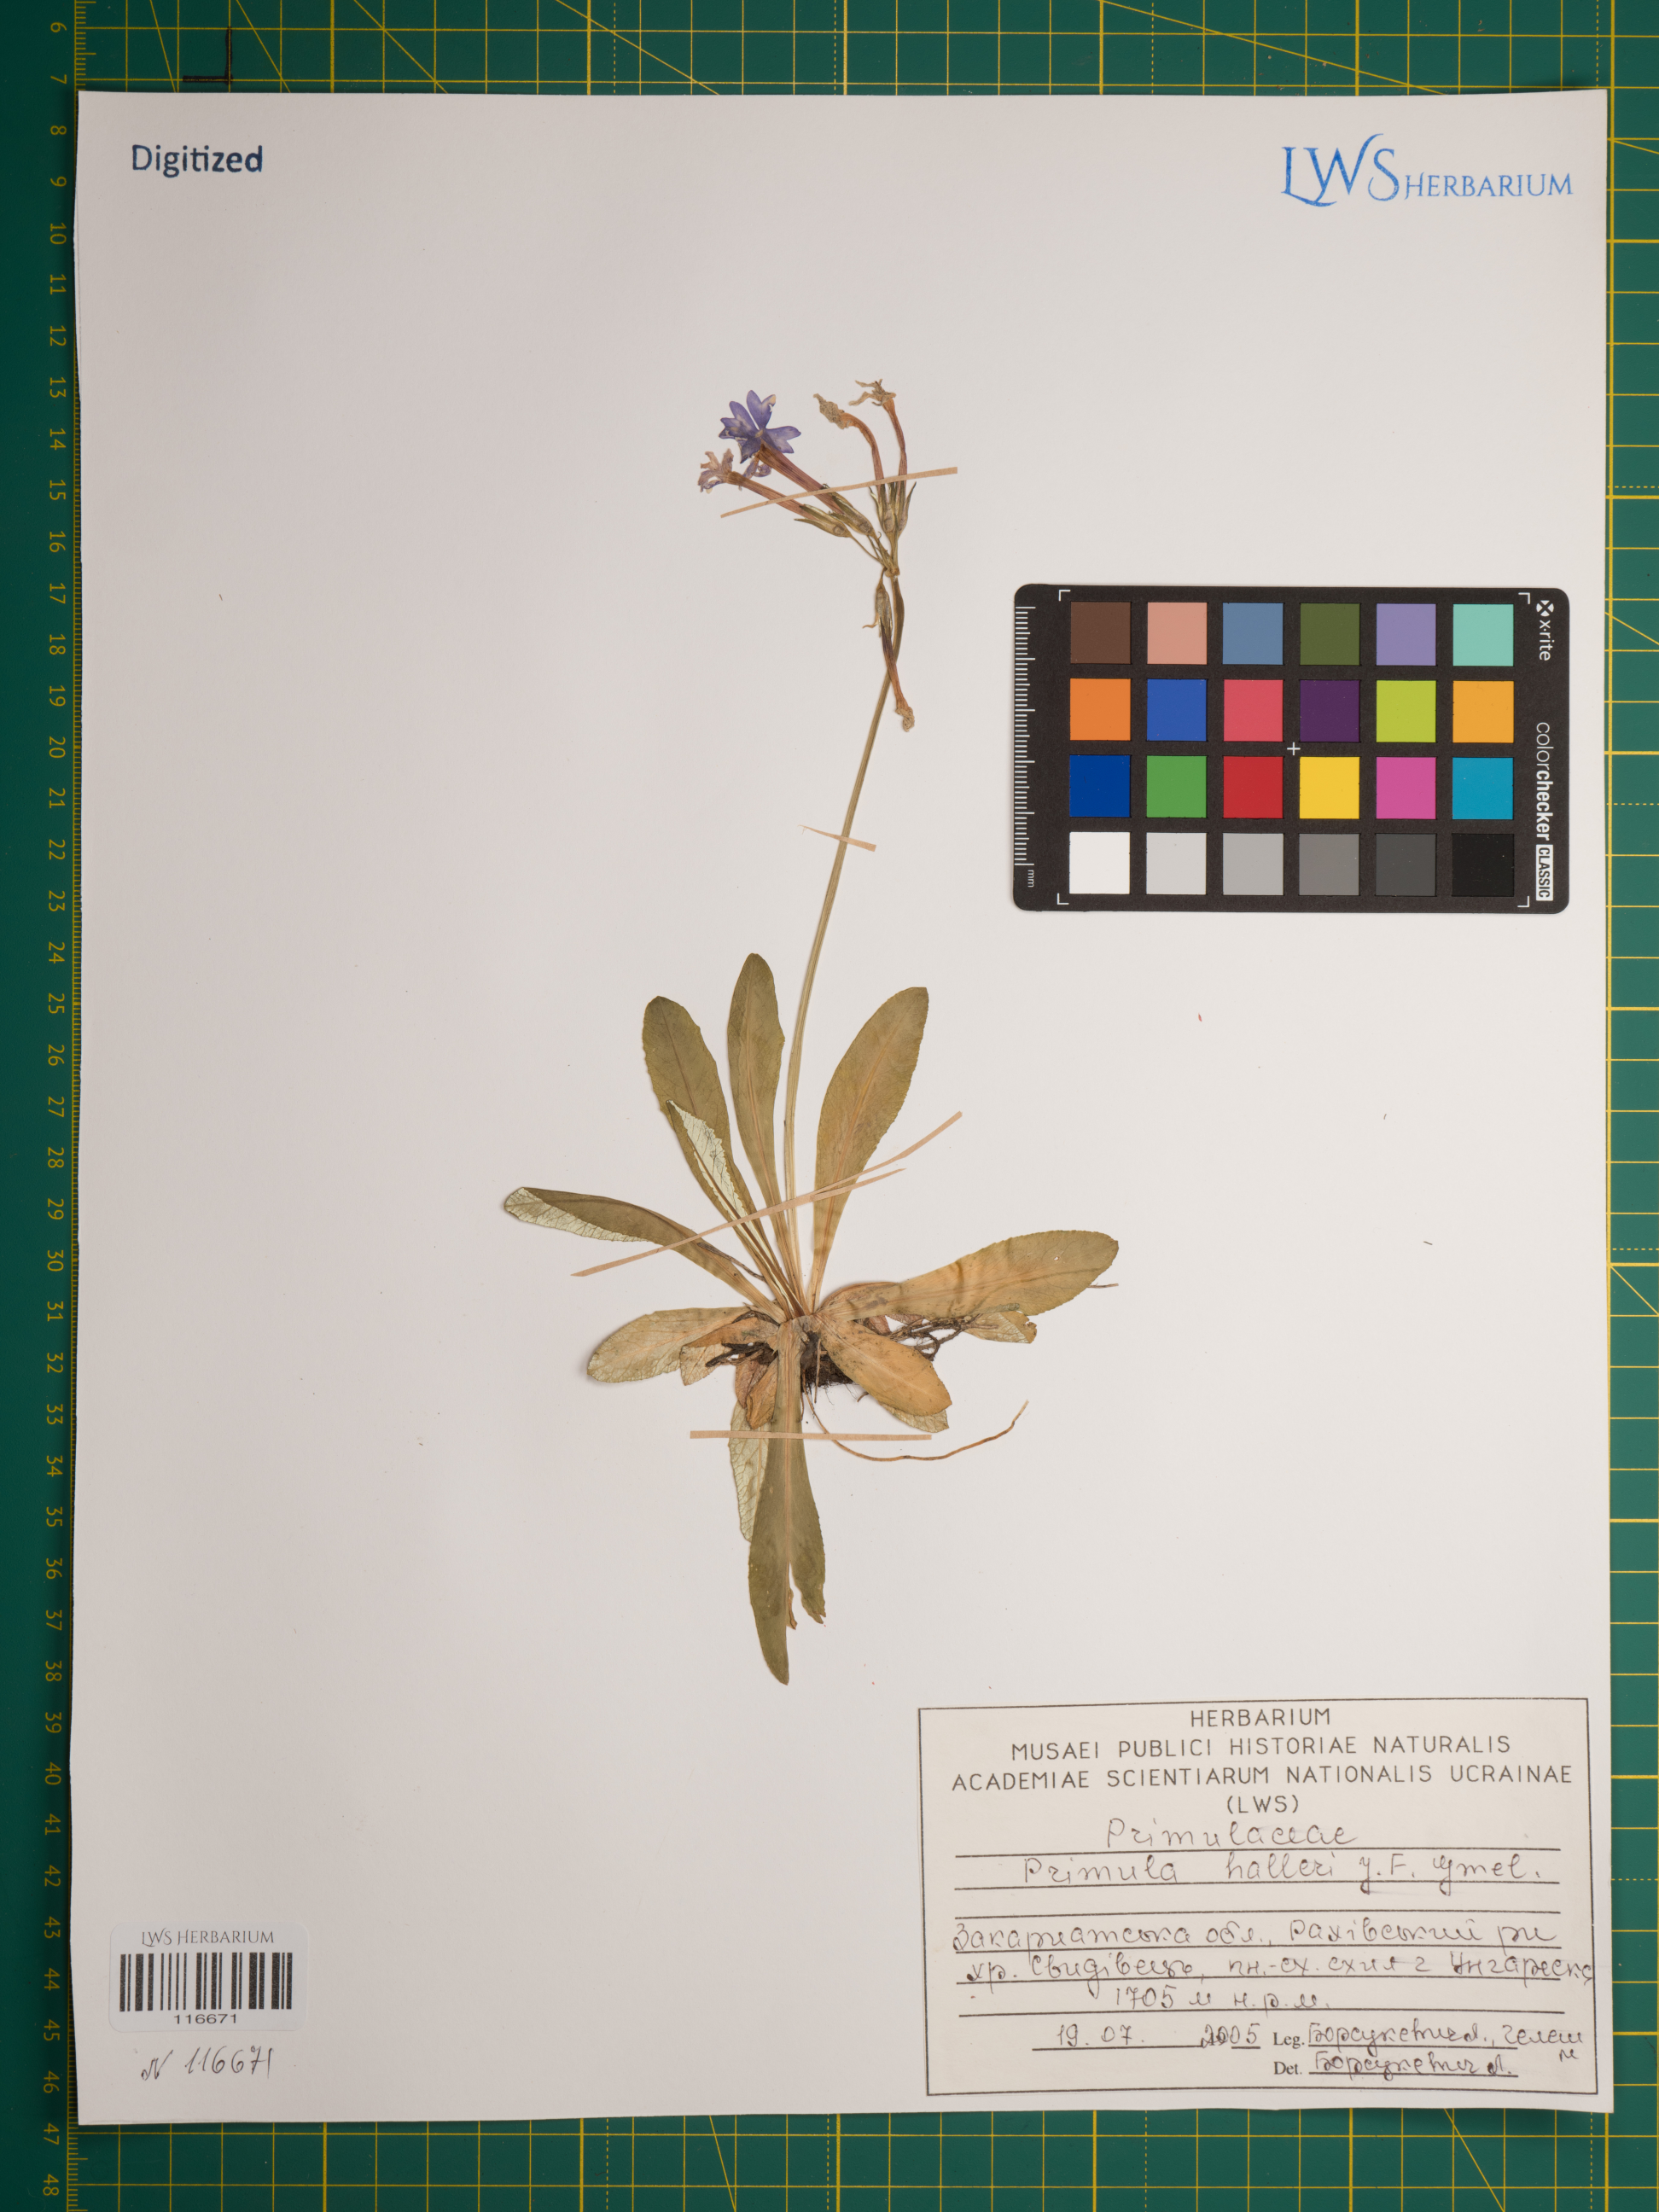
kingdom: Plantae
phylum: Tracheophyta
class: Magnoliopsida
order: Ericales
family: Primulaceae
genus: Primula
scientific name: Primula halleri
